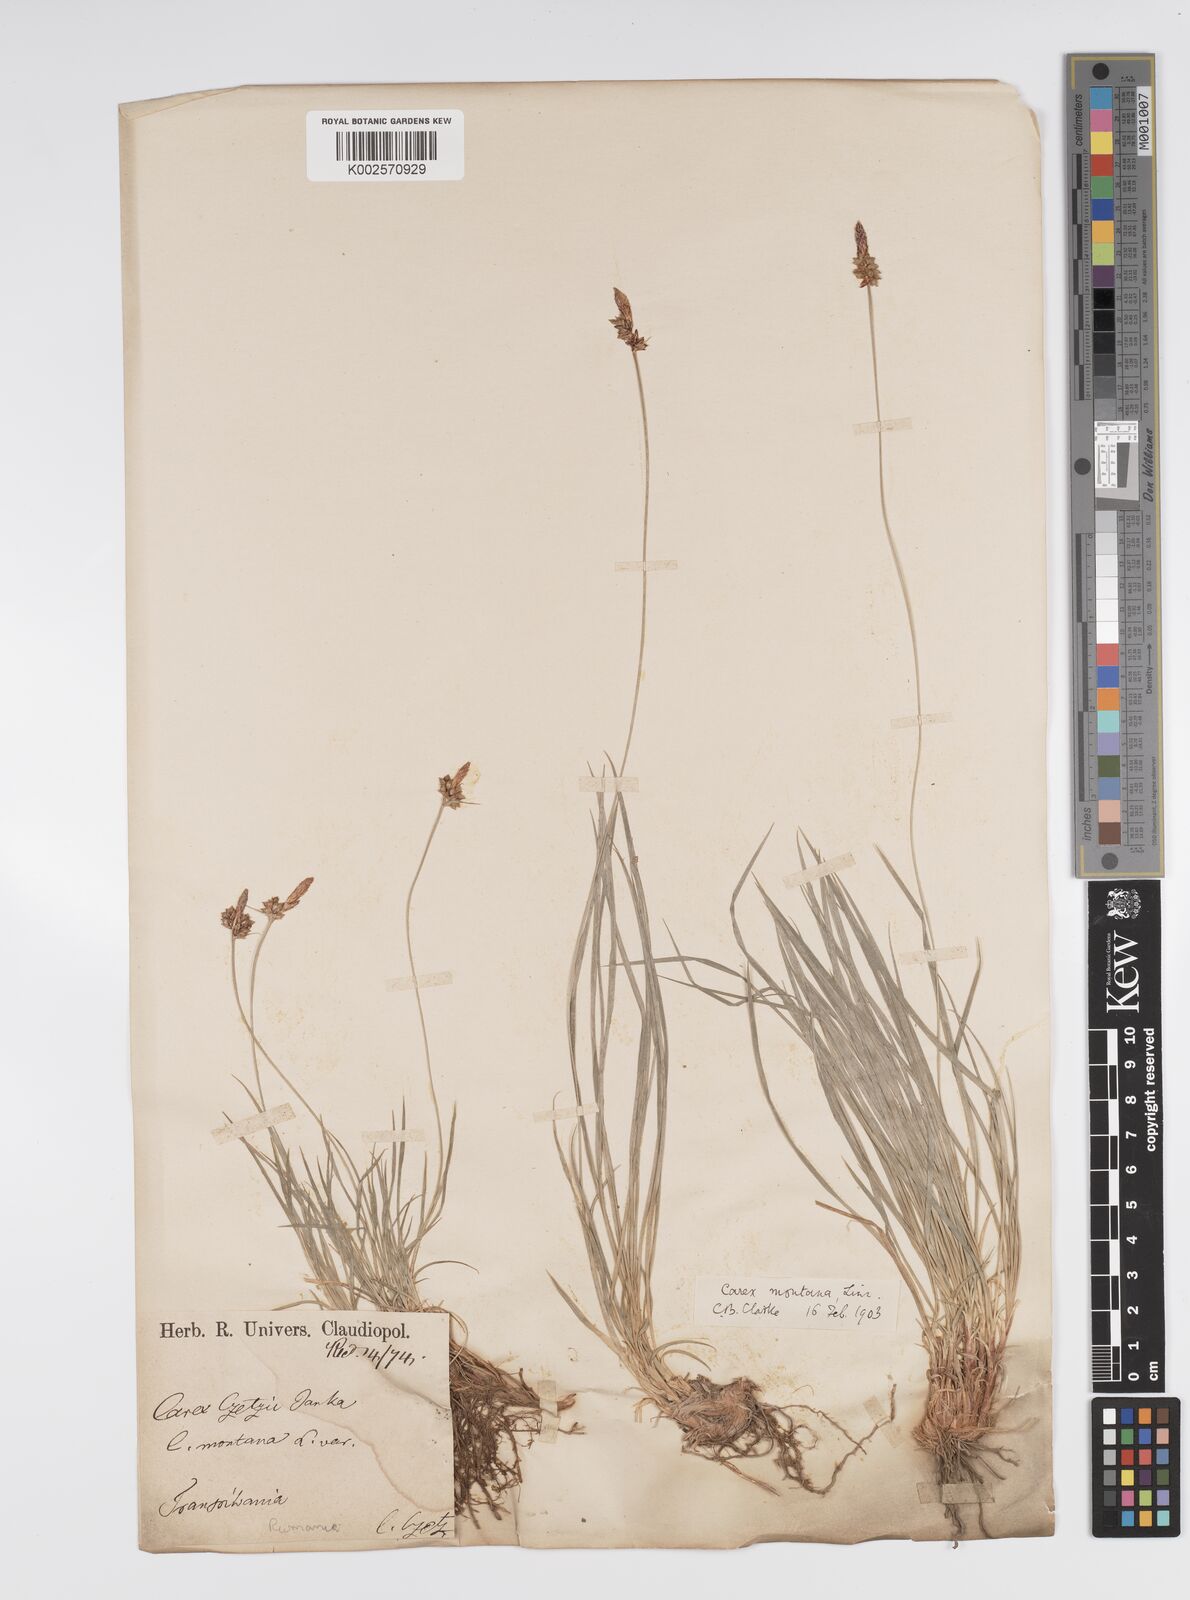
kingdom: Plantae
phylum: Tracheophyta
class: Liliopsida
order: Poales
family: Cyperaceae
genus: Carex
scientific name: Carex montana
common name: Soft-leaved sedge
